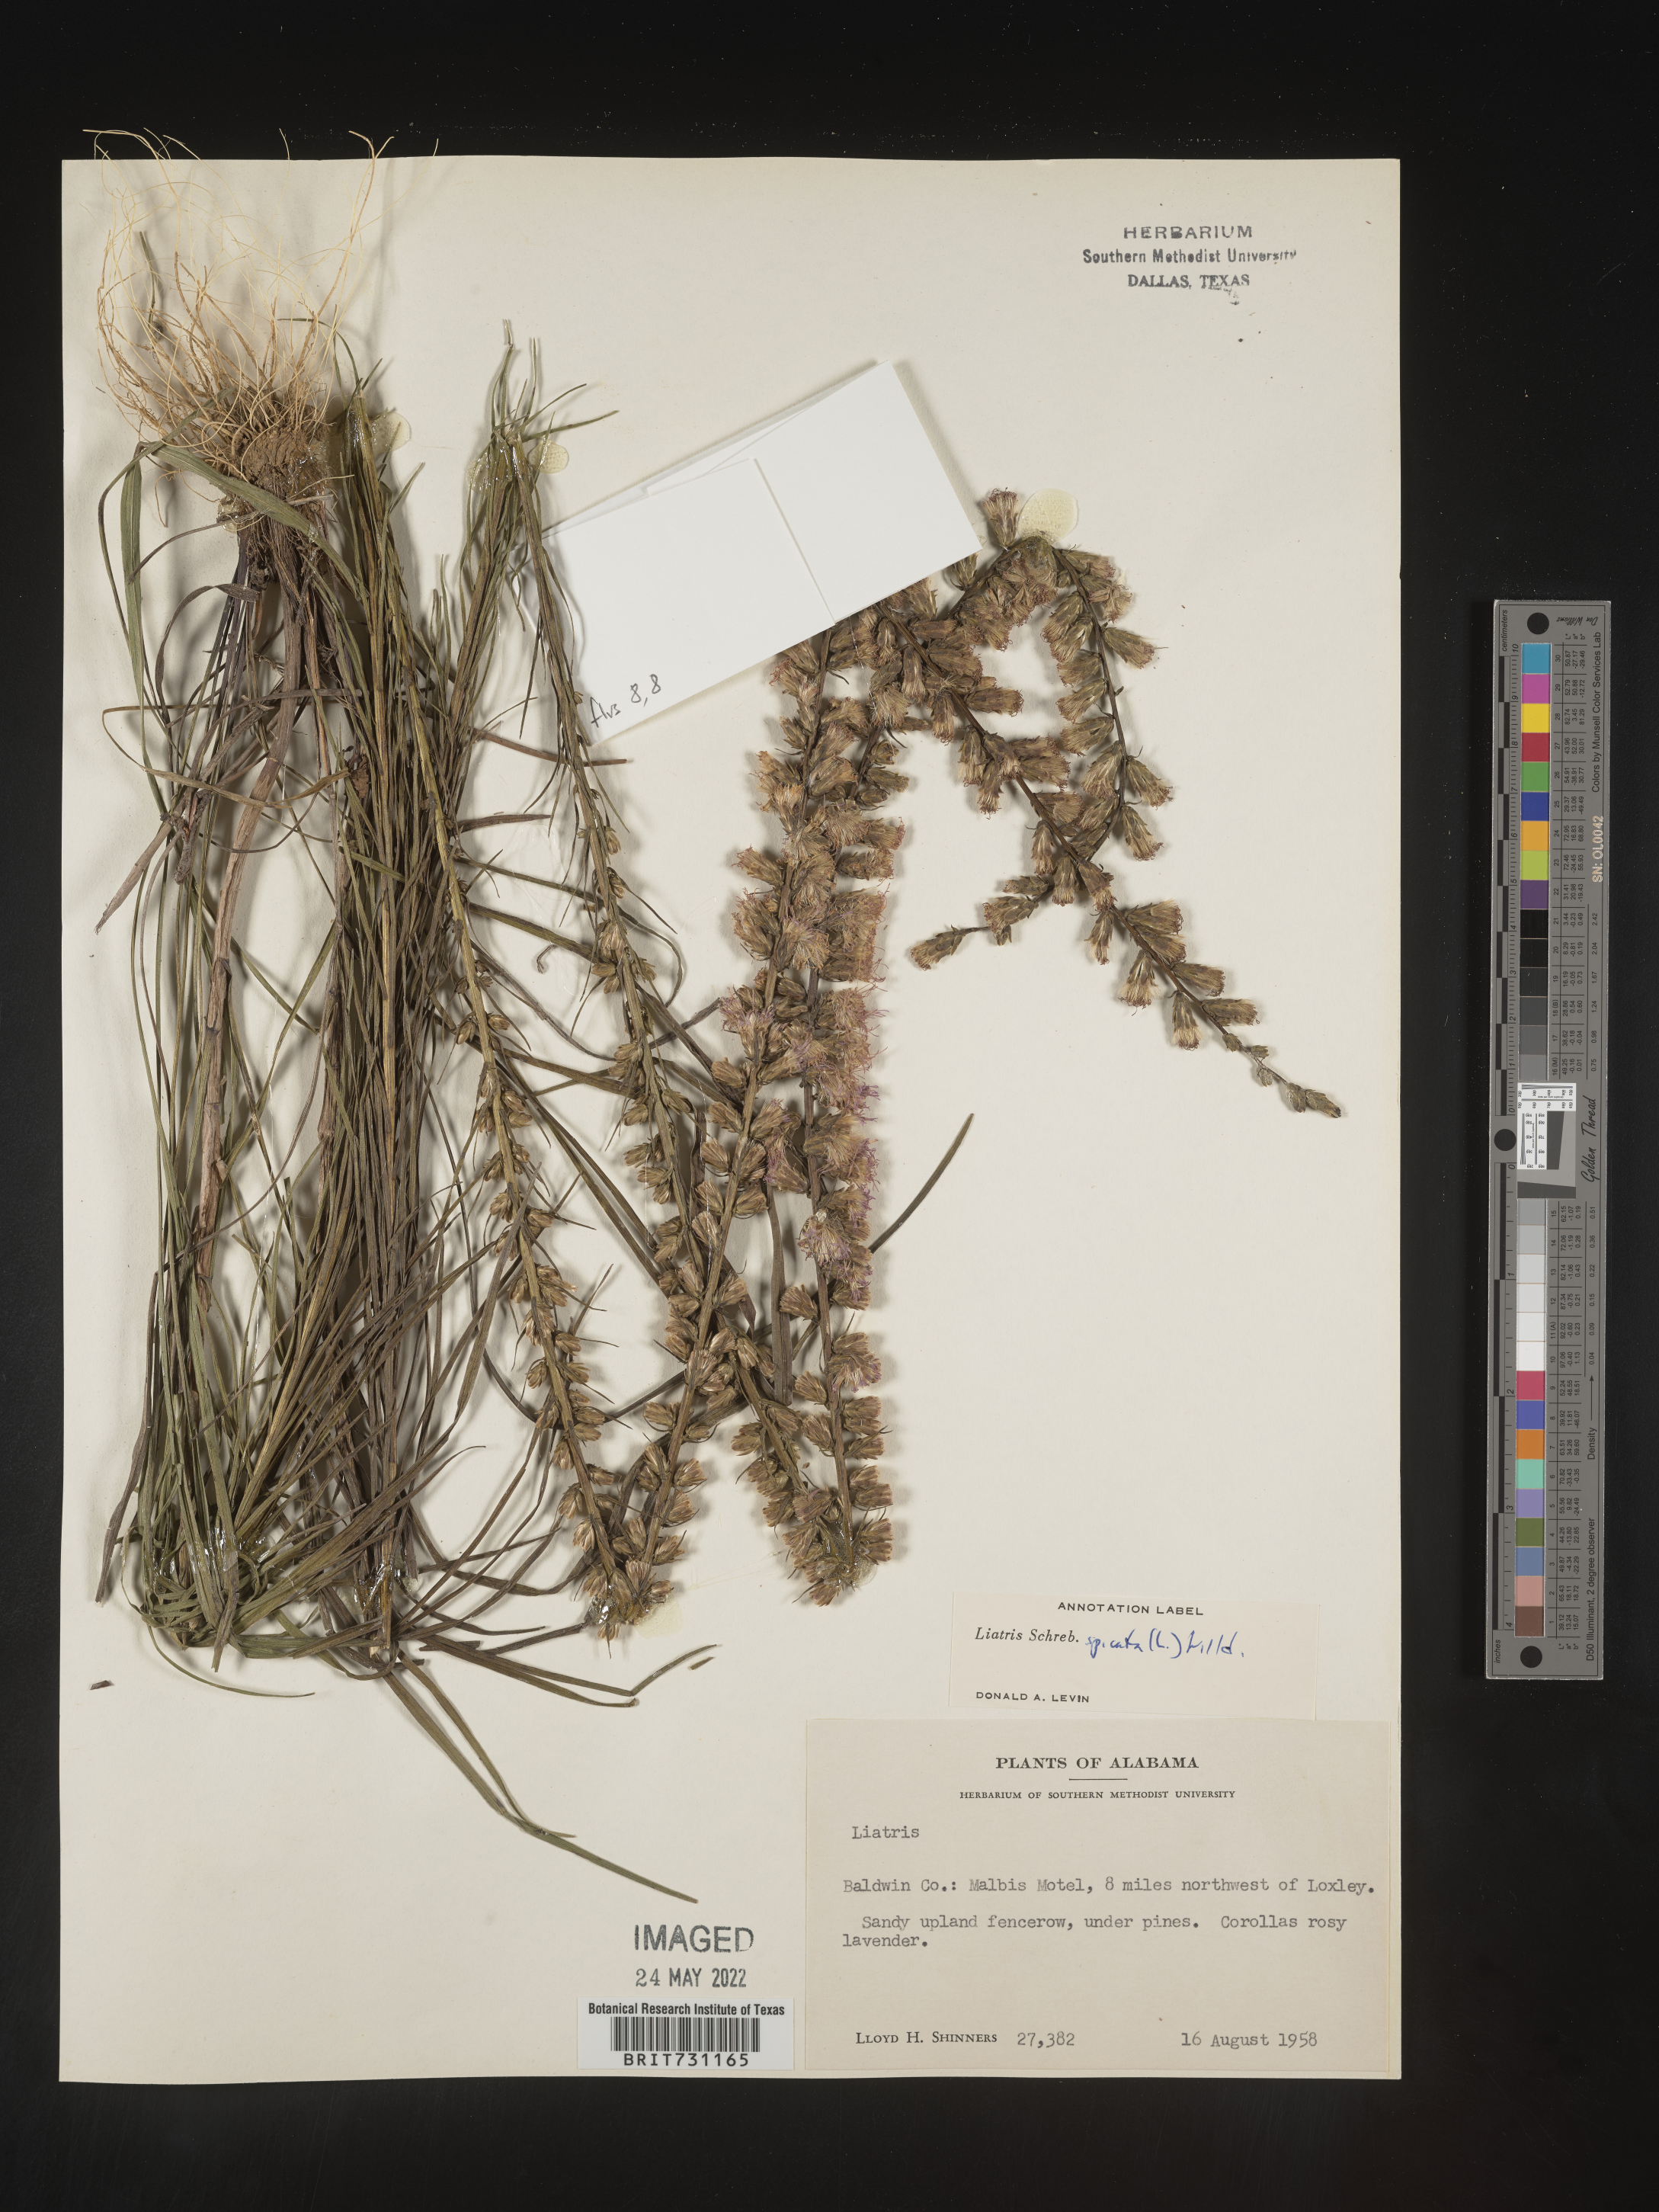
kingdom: Plantae
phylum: Tracheophyta
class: Magnoliopsida
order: Asterales
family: Asteraceae
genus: Liatris
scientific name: Liatris spicata
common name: Florist gayfeather
